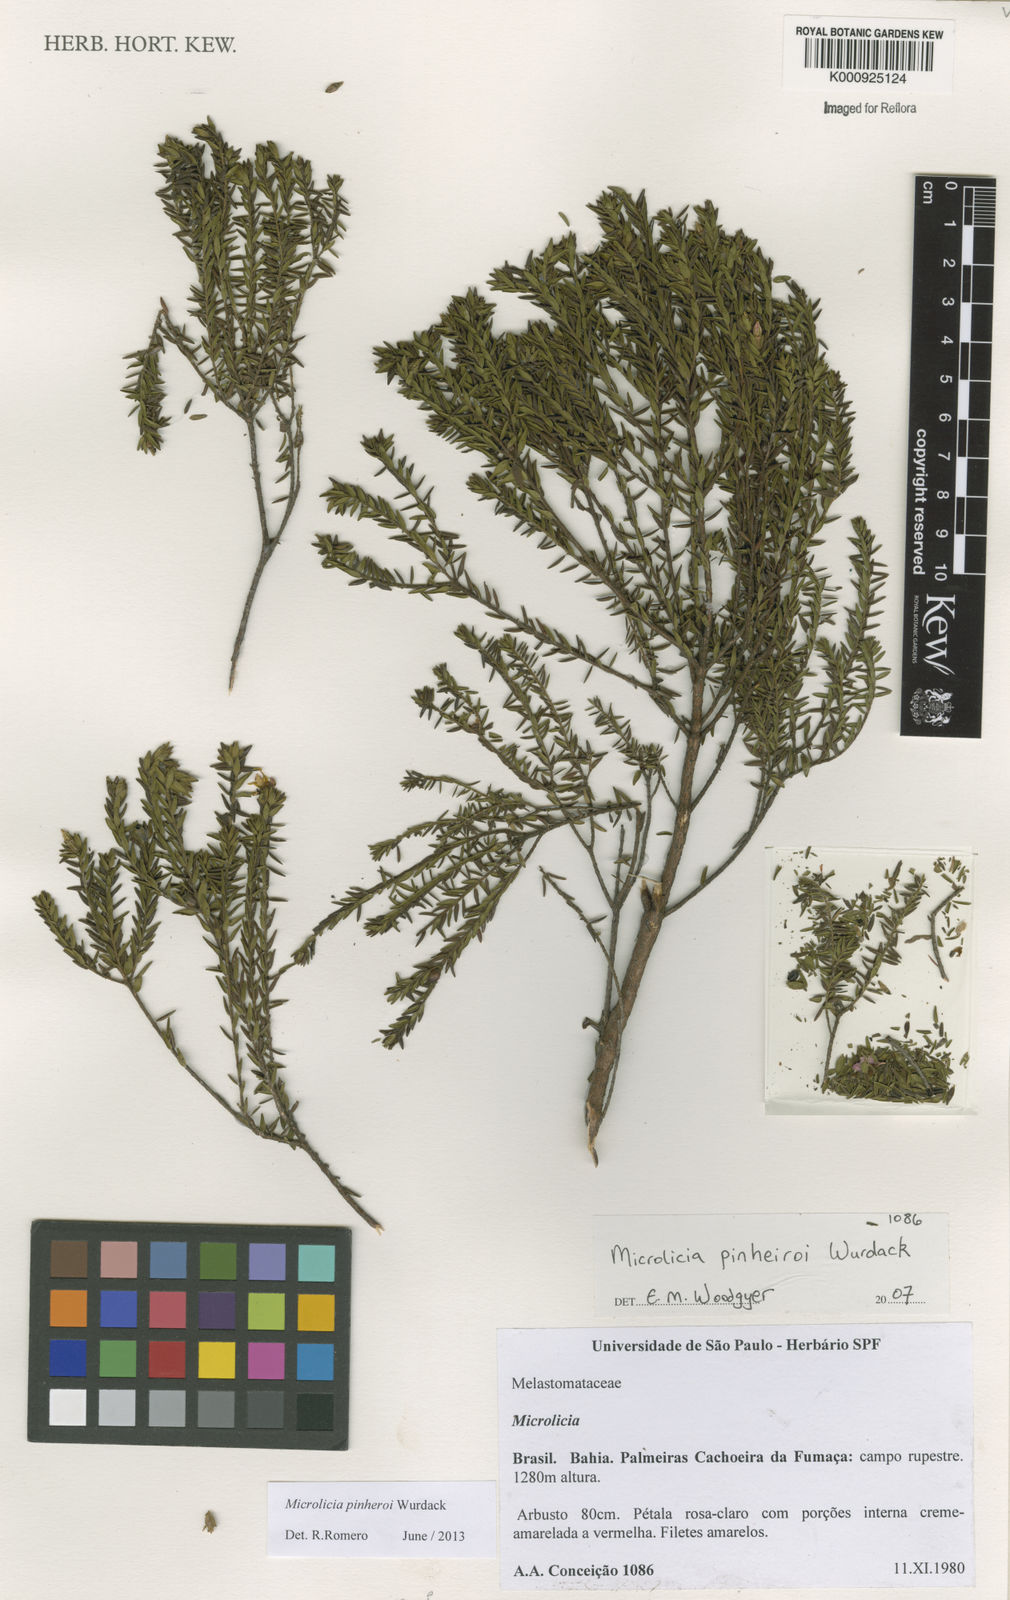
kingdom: Plantae
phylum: Tracheophyta
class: Magnoliopsida
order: Myrtales
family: Melastomataceae
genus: Microlicia
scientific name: Microlicia pinheiroi
